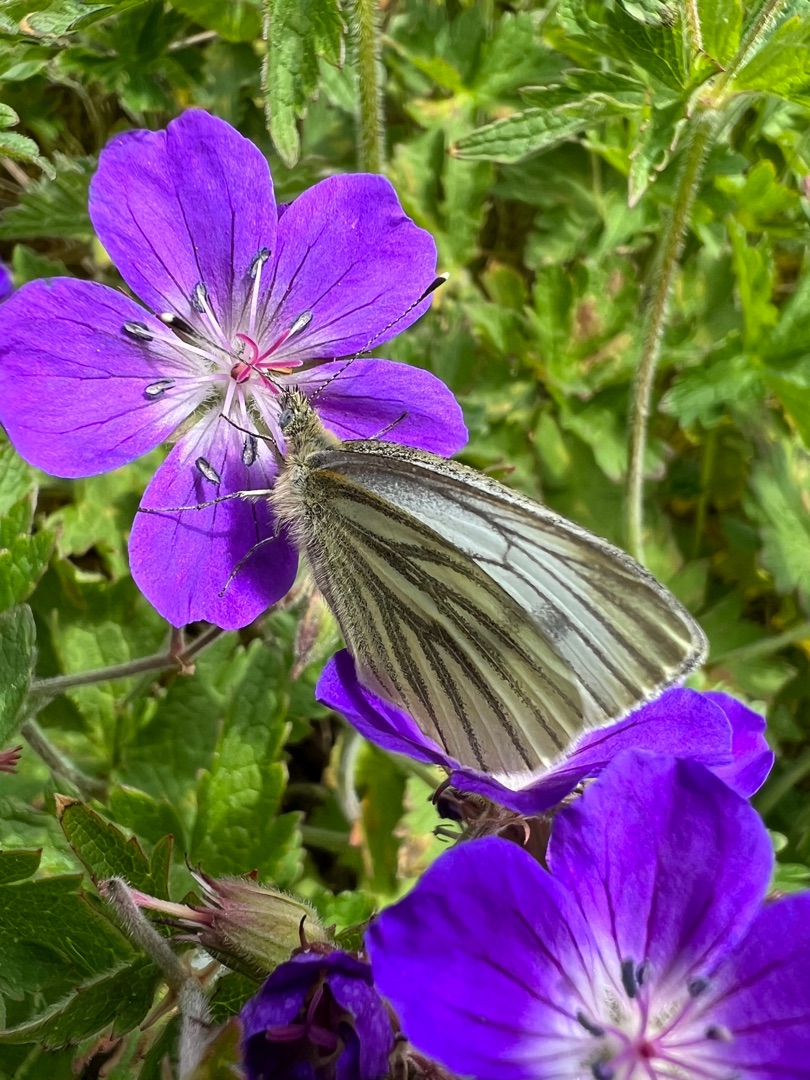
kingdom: Animalia
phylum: Arthropoda
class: Insecta
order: Lepidoptera
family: Pieridae
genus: Pieris
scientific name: Pieris napi
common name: Grønåret kålsommerfugl
